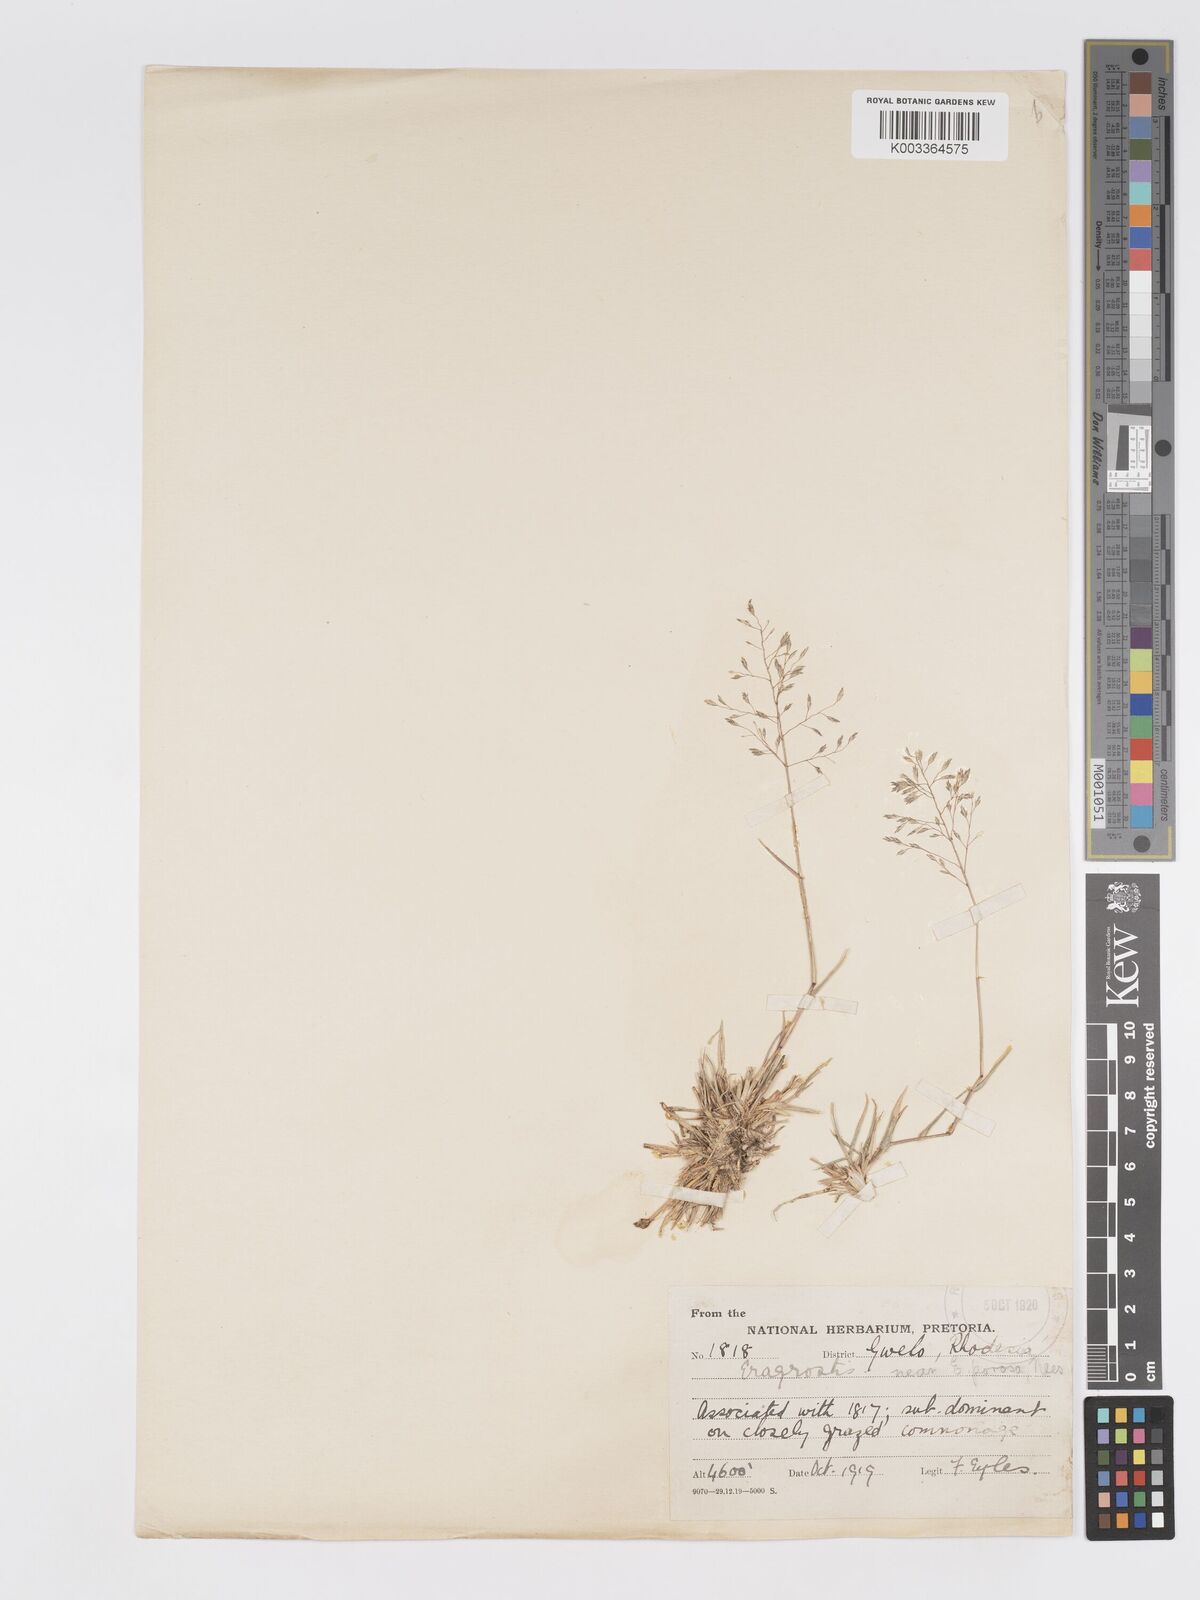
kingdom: Plantae
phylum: Tracheophyta
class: Liliopsida
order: Poales
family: Poaceae
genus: Eragrostis
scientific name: Eragrostis patentipilosa
